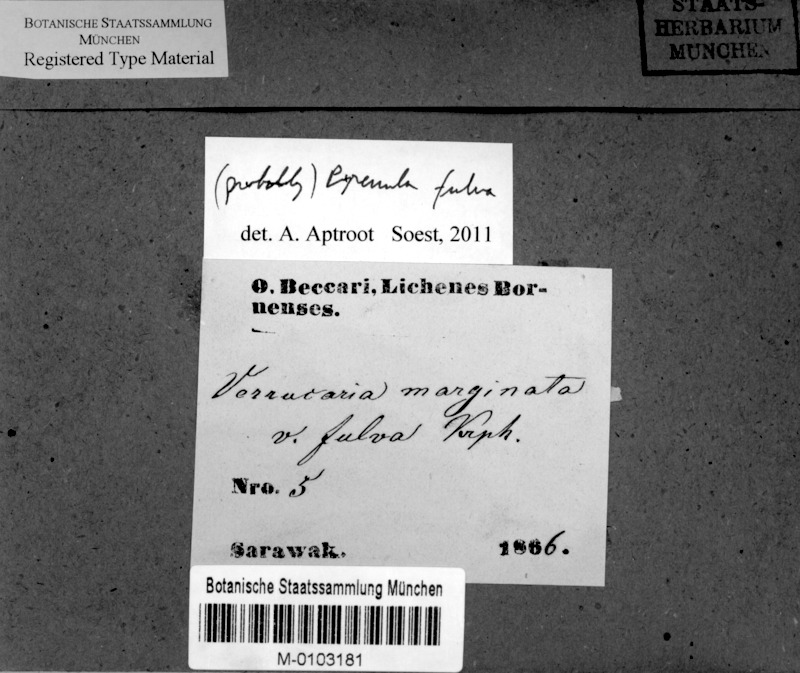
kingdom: Fungi
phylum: Ascomycota
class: Eurotiomycetes
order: Pyrenulales
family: Pyrenulaceae
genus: Pyrenula
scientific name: Pyrenula mamillana
